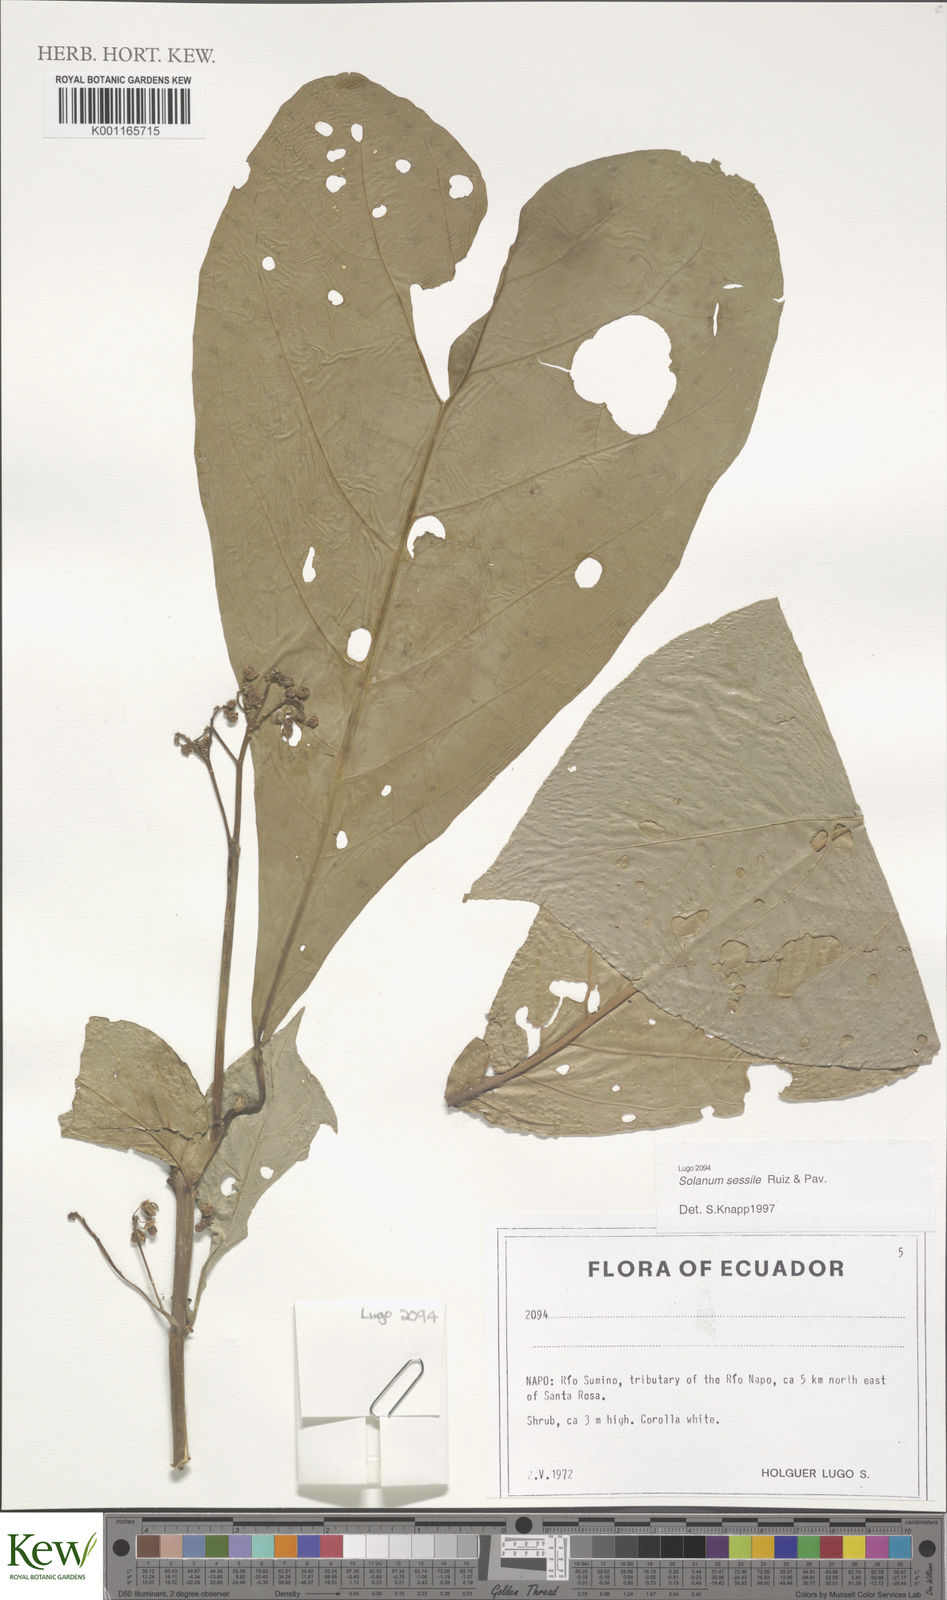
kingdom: Plantae
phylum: Tracheophyta
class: Magnoliopsida
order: Solanales
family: Solanaceae
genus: Solanum
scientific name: Solanum sessile
